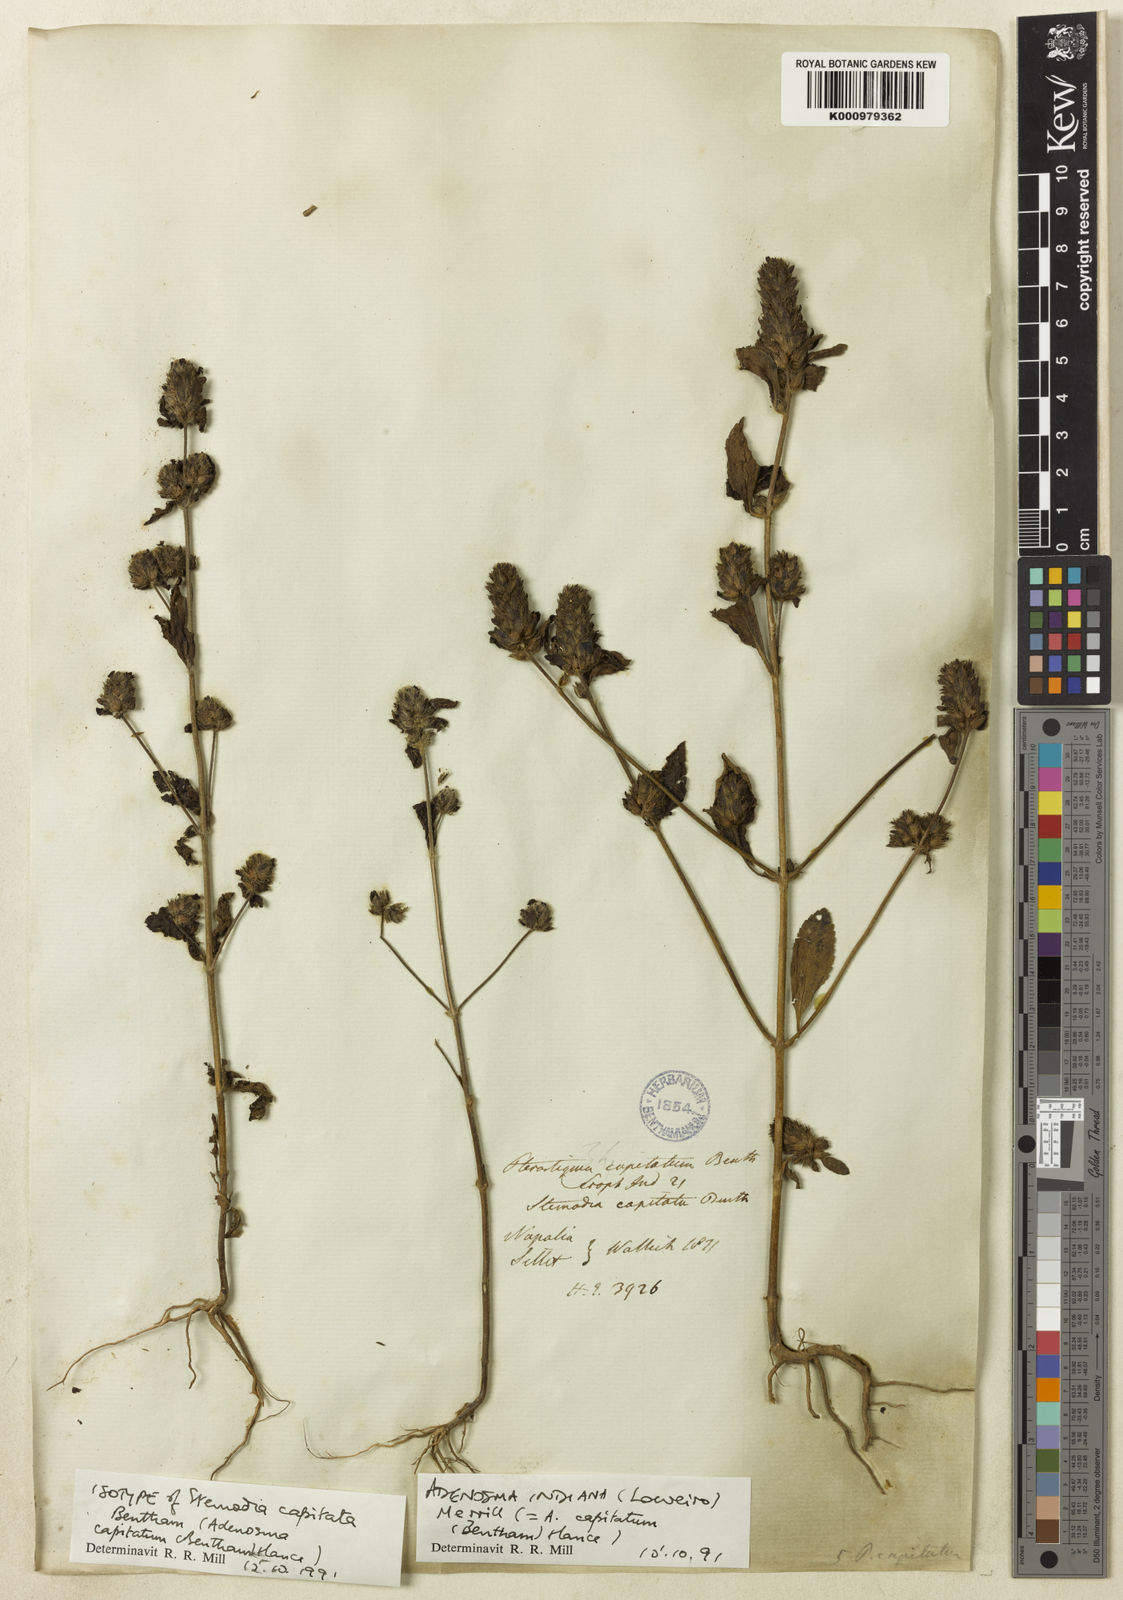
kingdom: Plantae
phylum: Tracheophyta
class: Magnoliopsida
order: Lamiales
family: Plantaginaceae
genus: Adenosma
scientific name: Adenosma indiana
